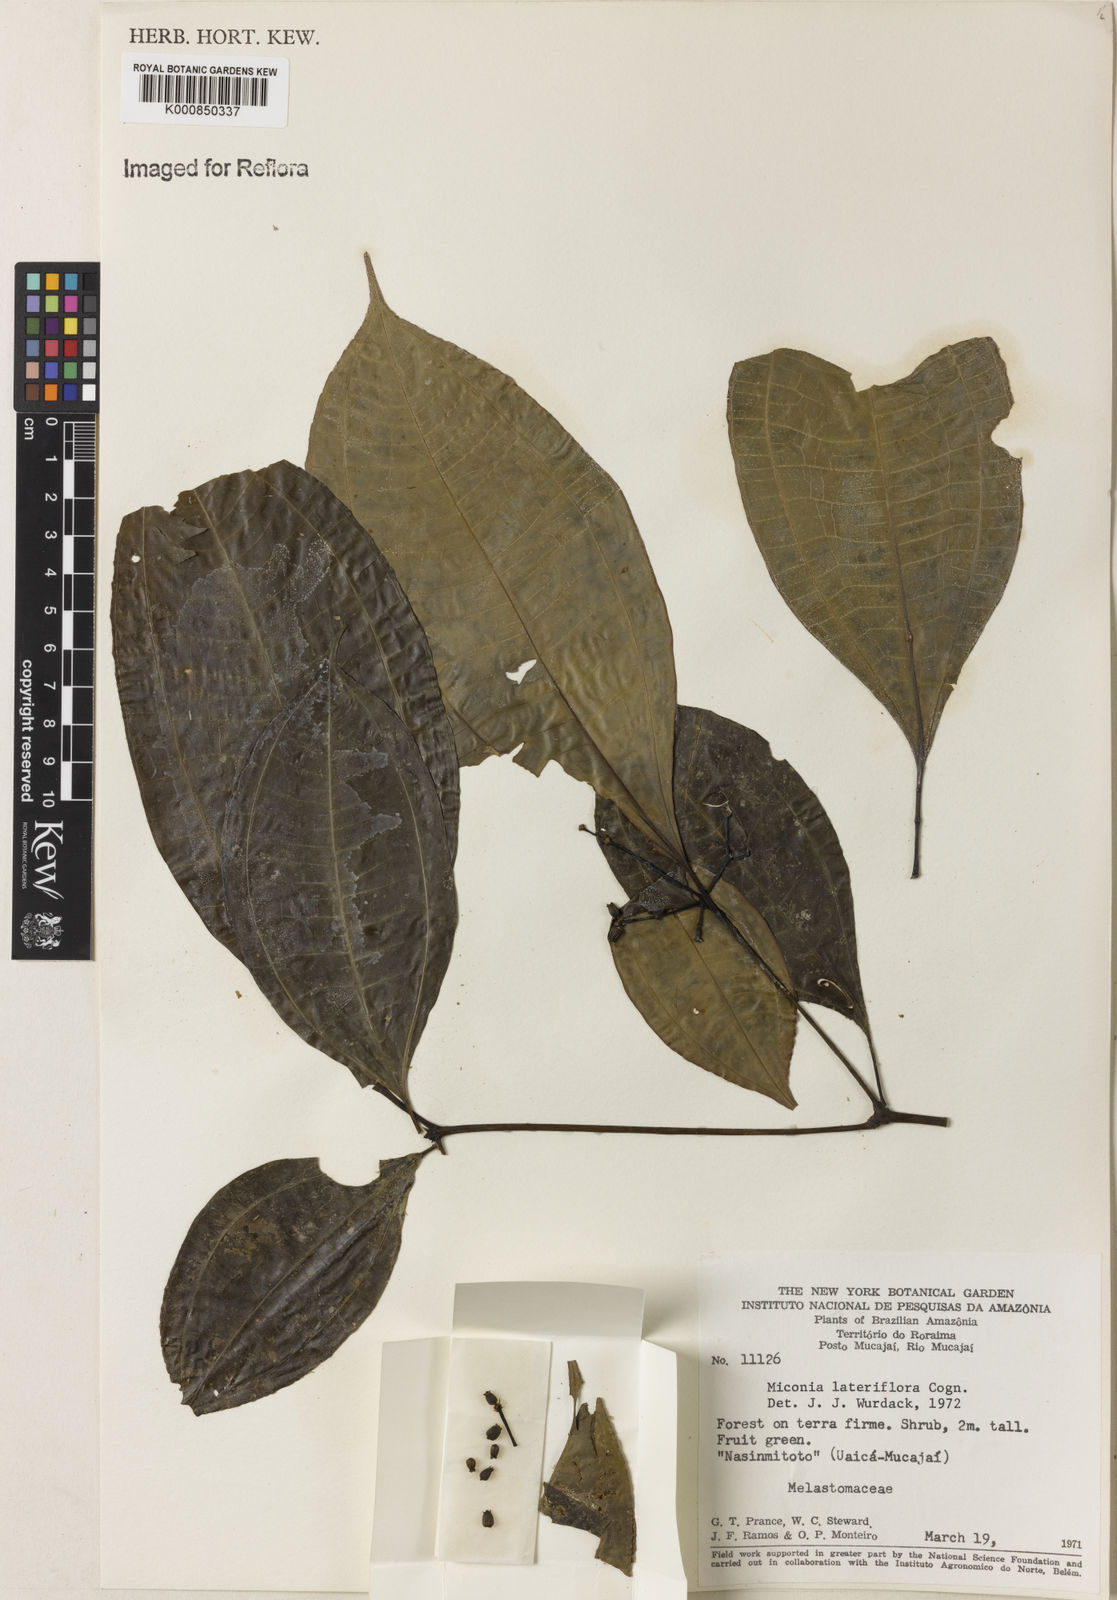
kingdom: Plantae
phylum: Tracheophyta
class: Magnoliopsida
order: Myrtales
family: Melastomataceae
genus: Miconia
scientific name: Miconia lateriflora
